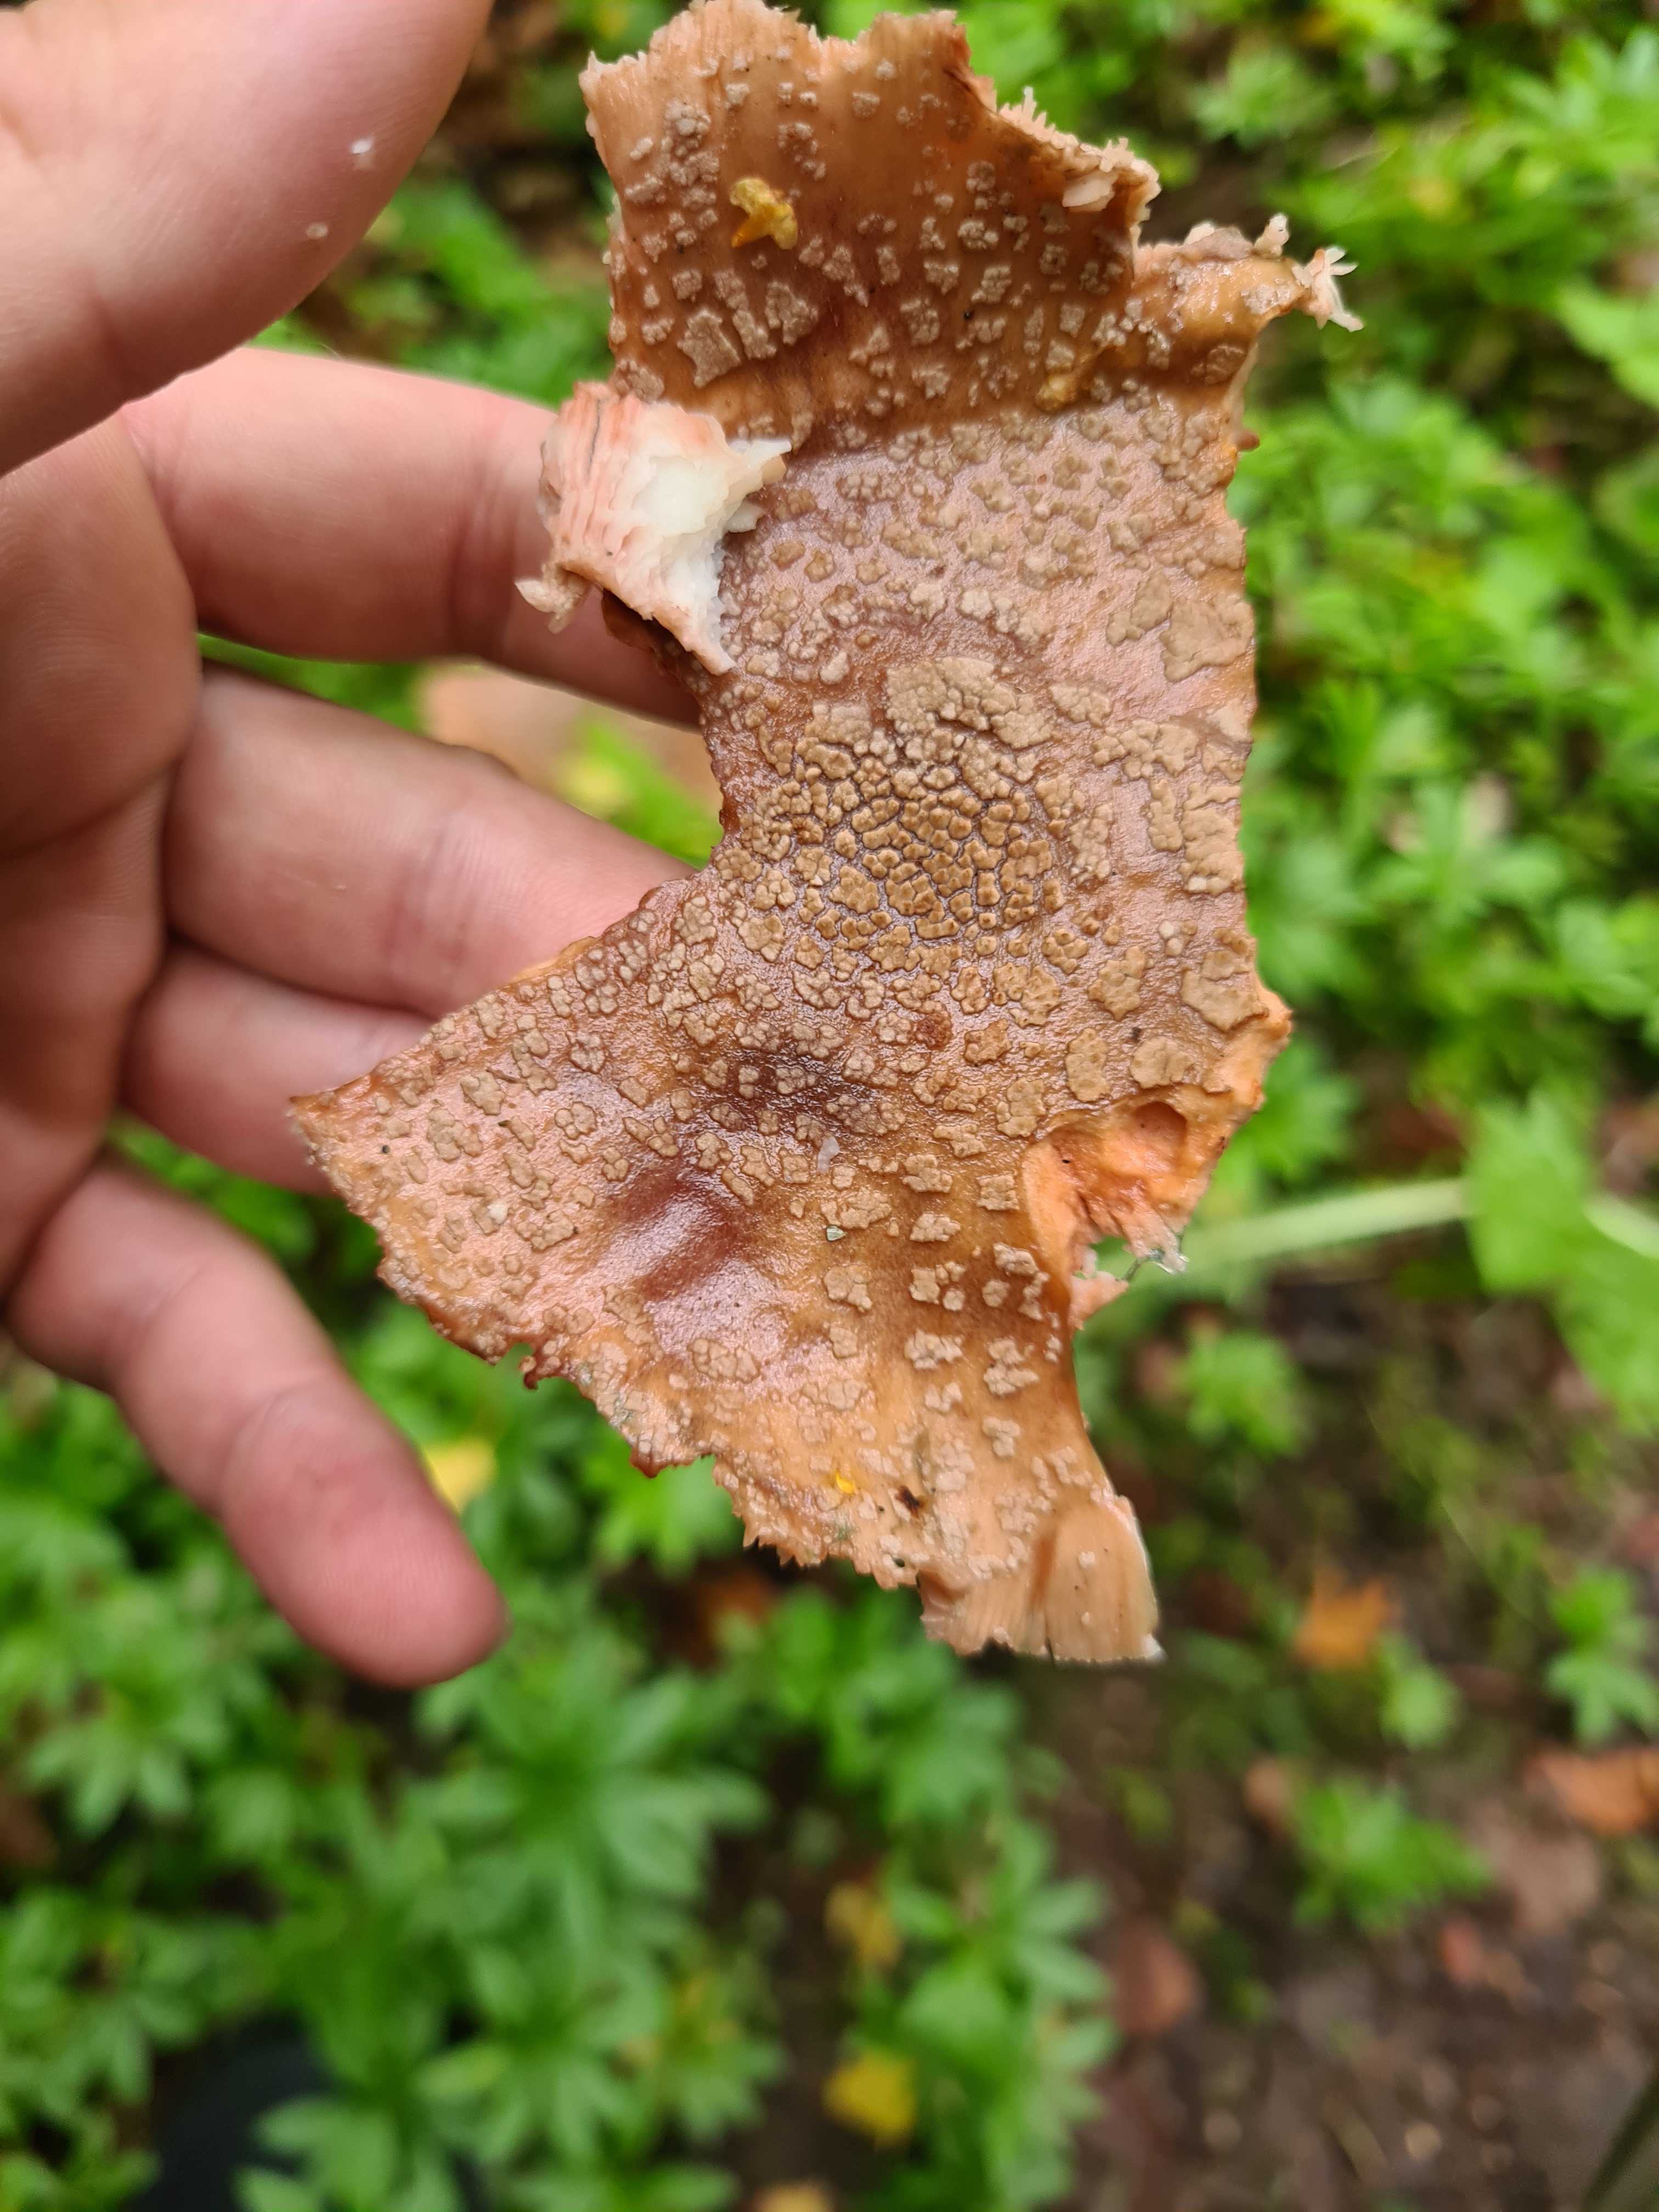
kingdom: Fungi
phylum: Basidiomycota
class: Agaricomycetes
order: Agaricales
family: Amanitaceae
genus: Amanita
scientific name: Amanita rubescens
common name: rødmende fluesvamp
